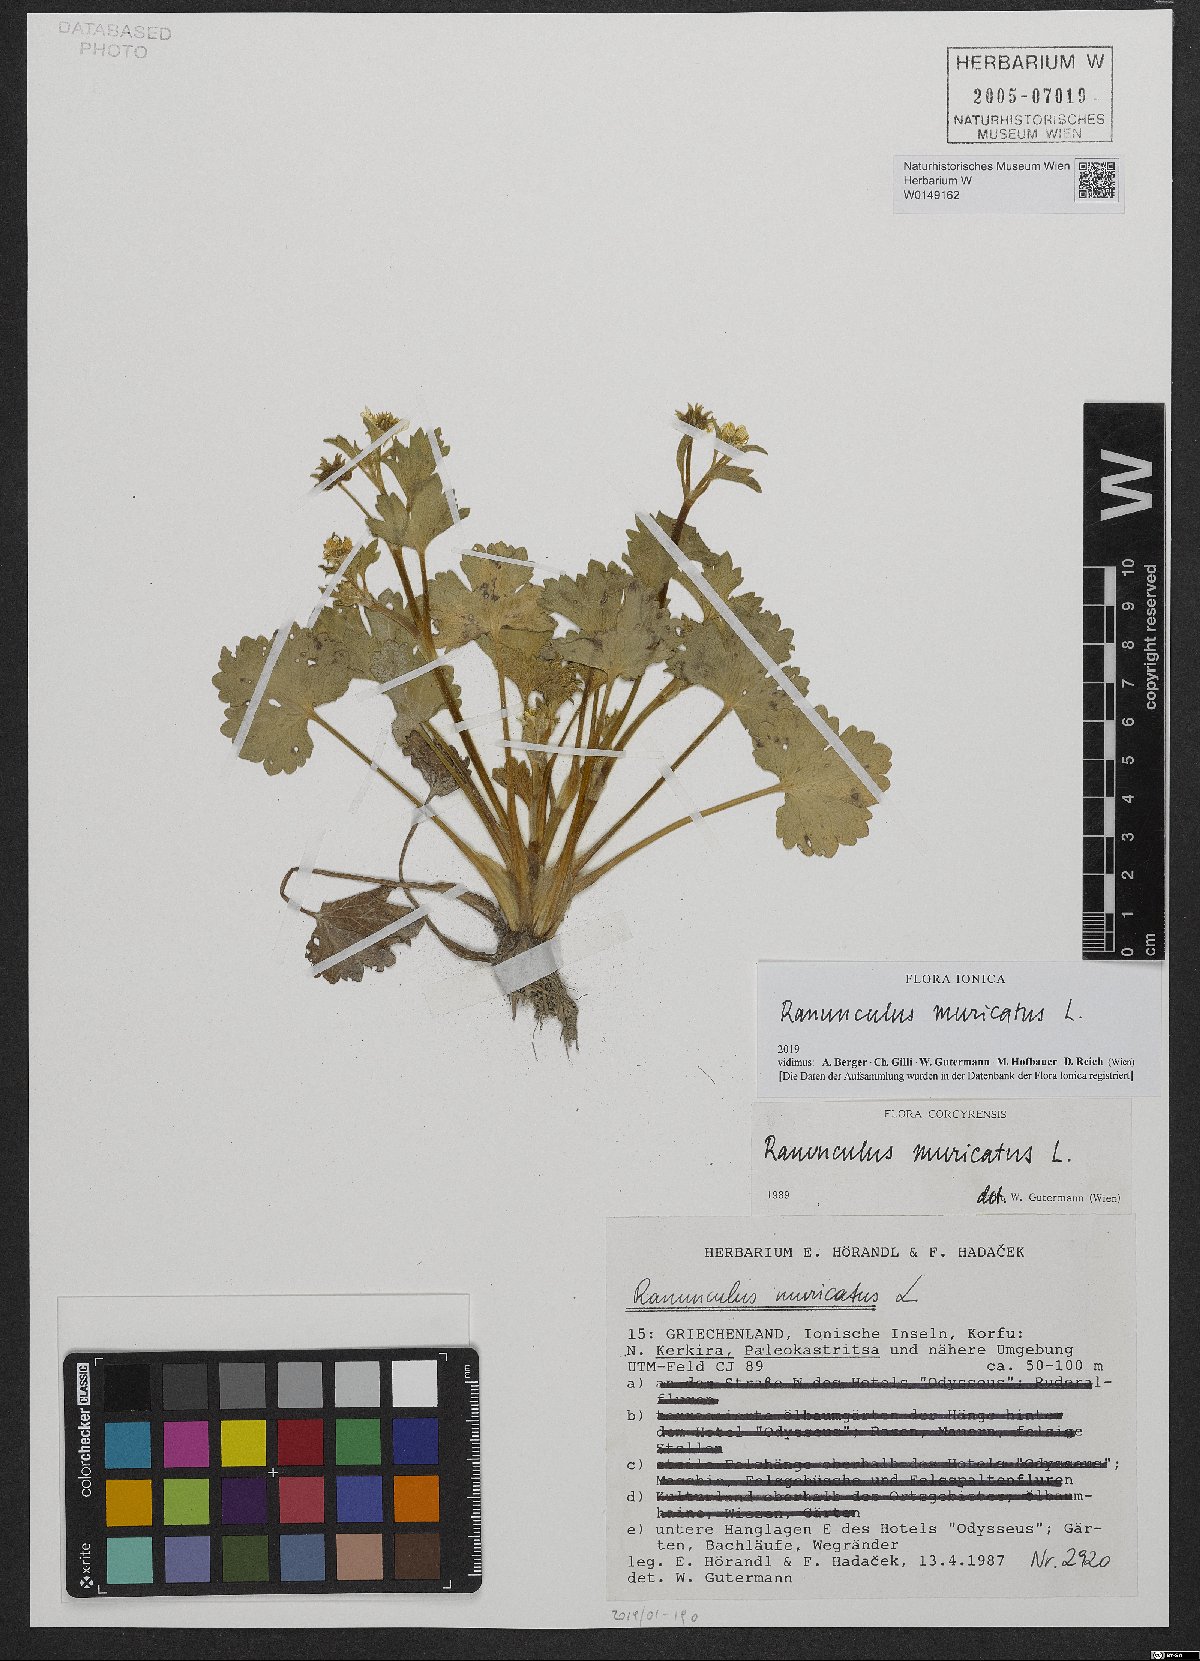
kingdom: Plantae
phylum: Tracheophyta
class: Magnoliopsida
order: Ranunculales
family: Ranunculaceae
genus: Ranunculus
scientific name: Ranunculus muricatus
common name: Rough-fruited buttercup
